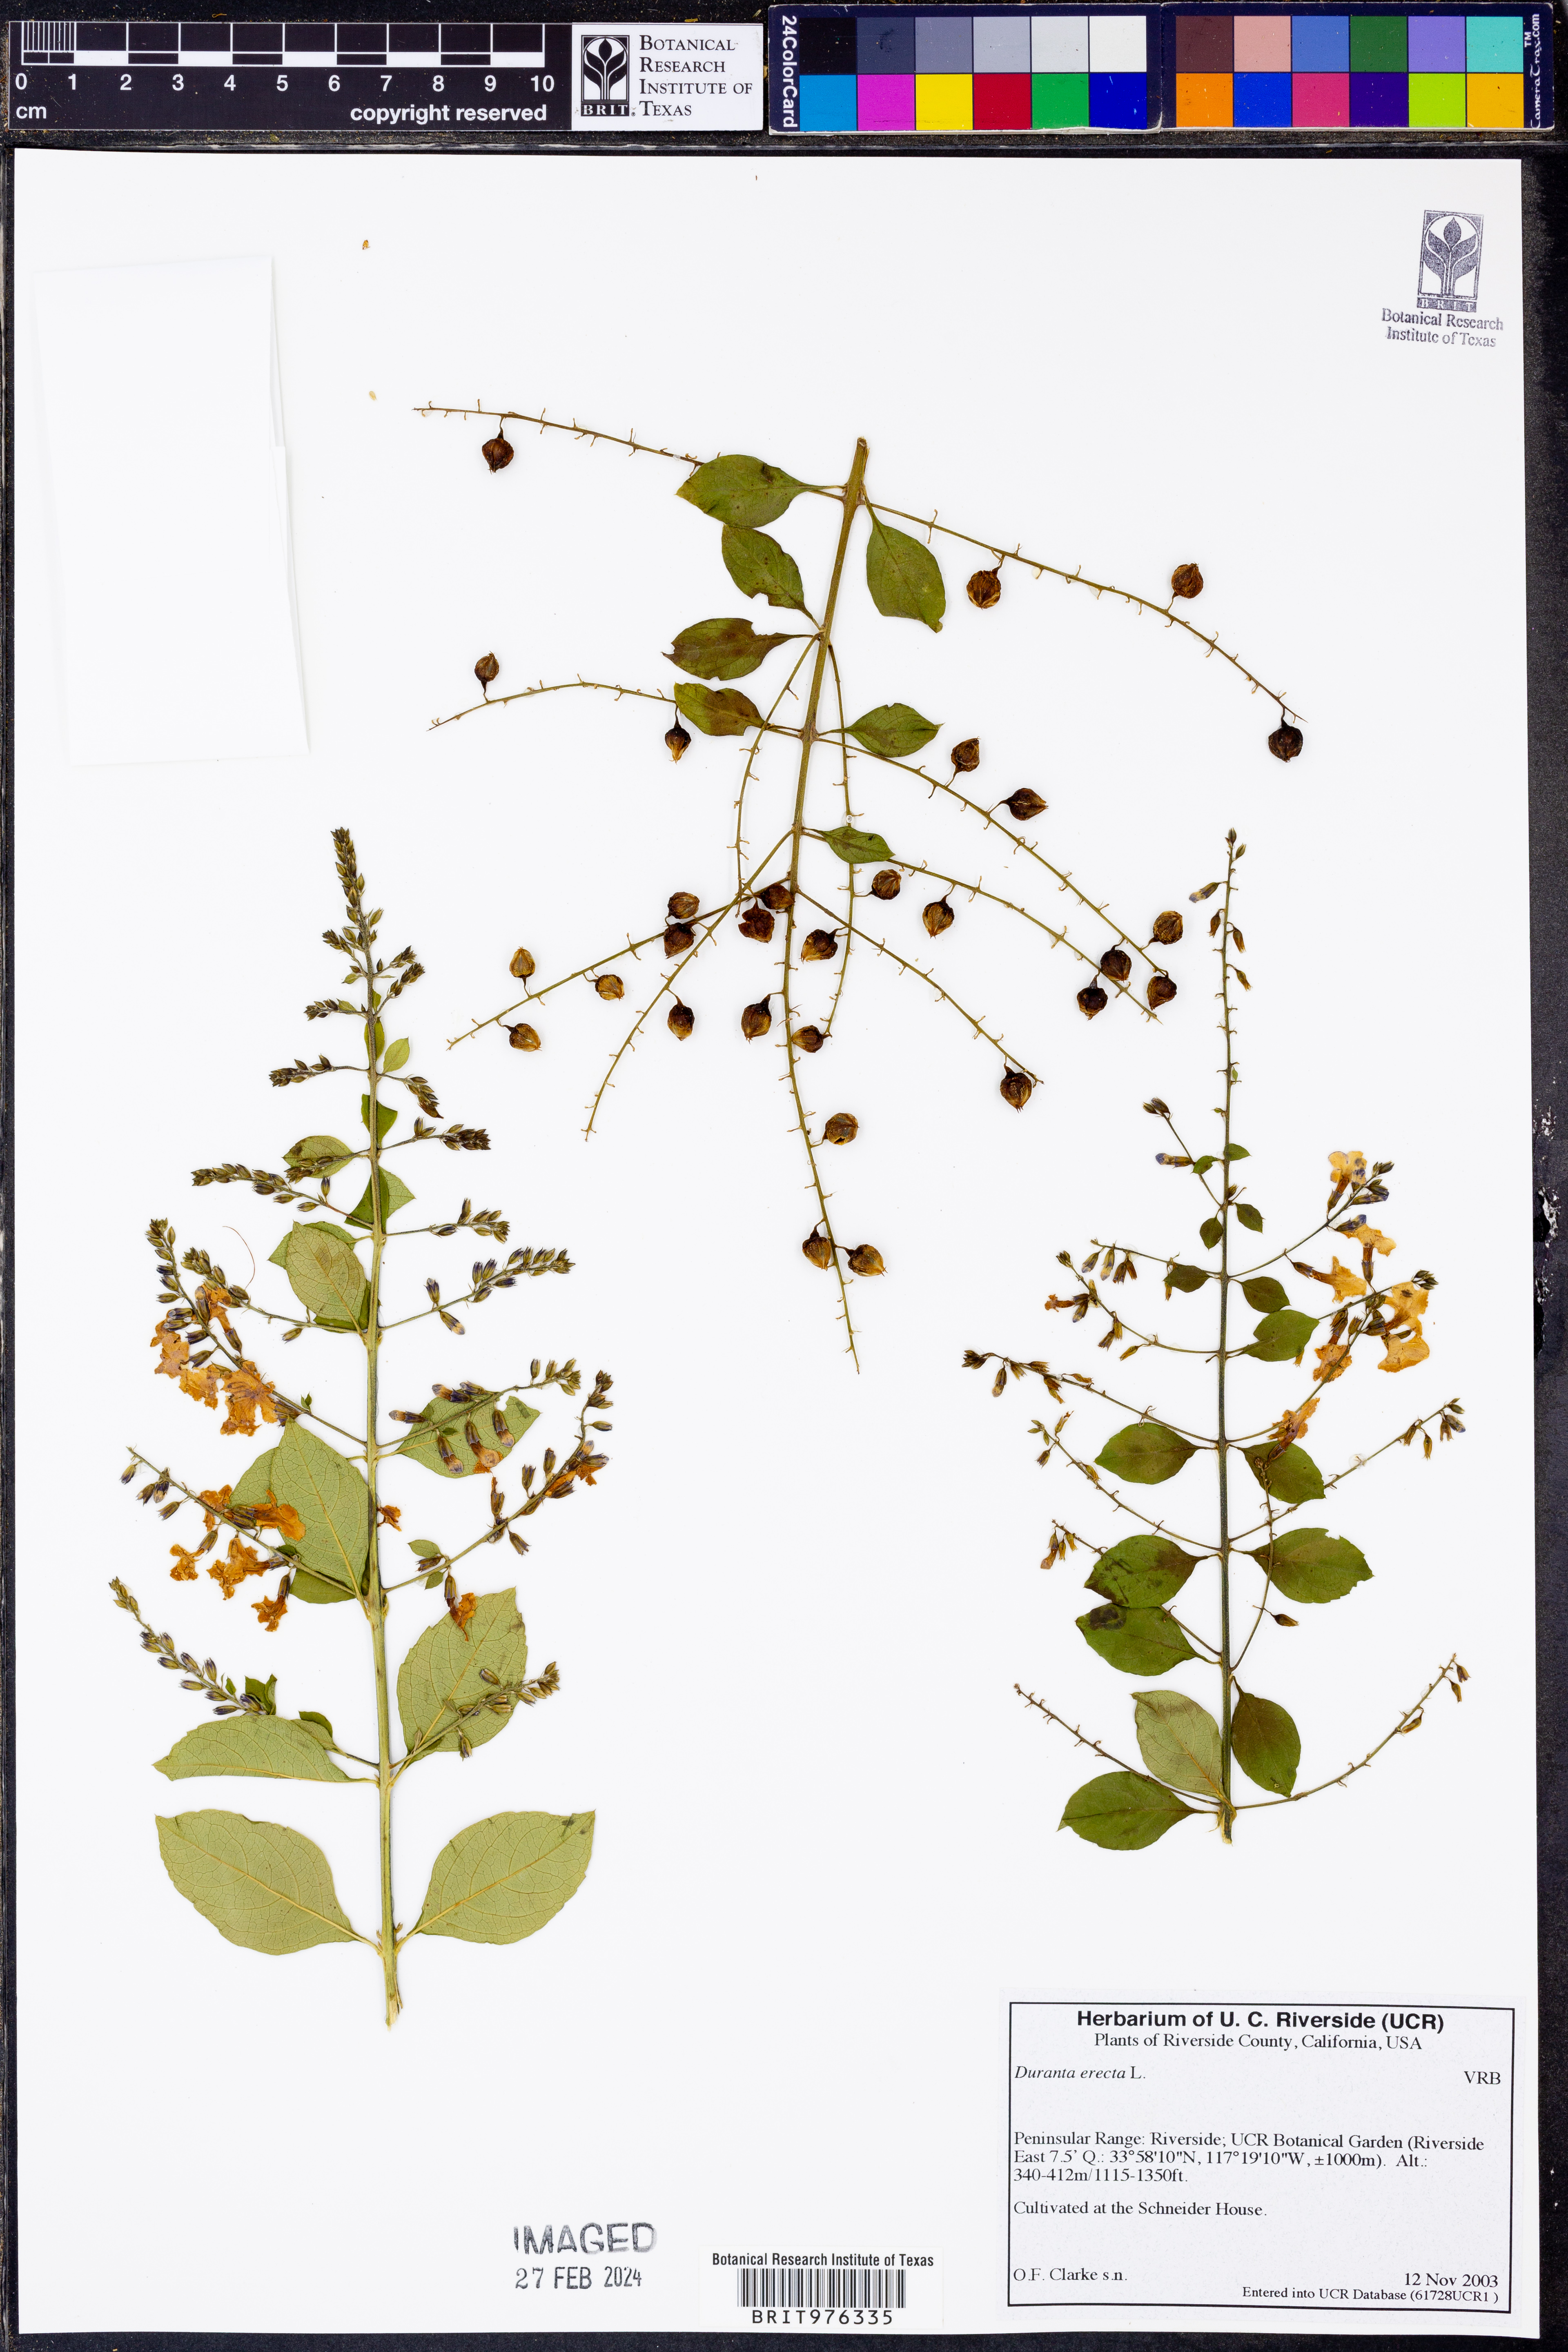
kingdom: Plantae
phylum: Tracheophyta
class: Magnoliopsida
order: Lamiales
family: Verbenaceae
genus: Diostea
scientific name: Diostea
